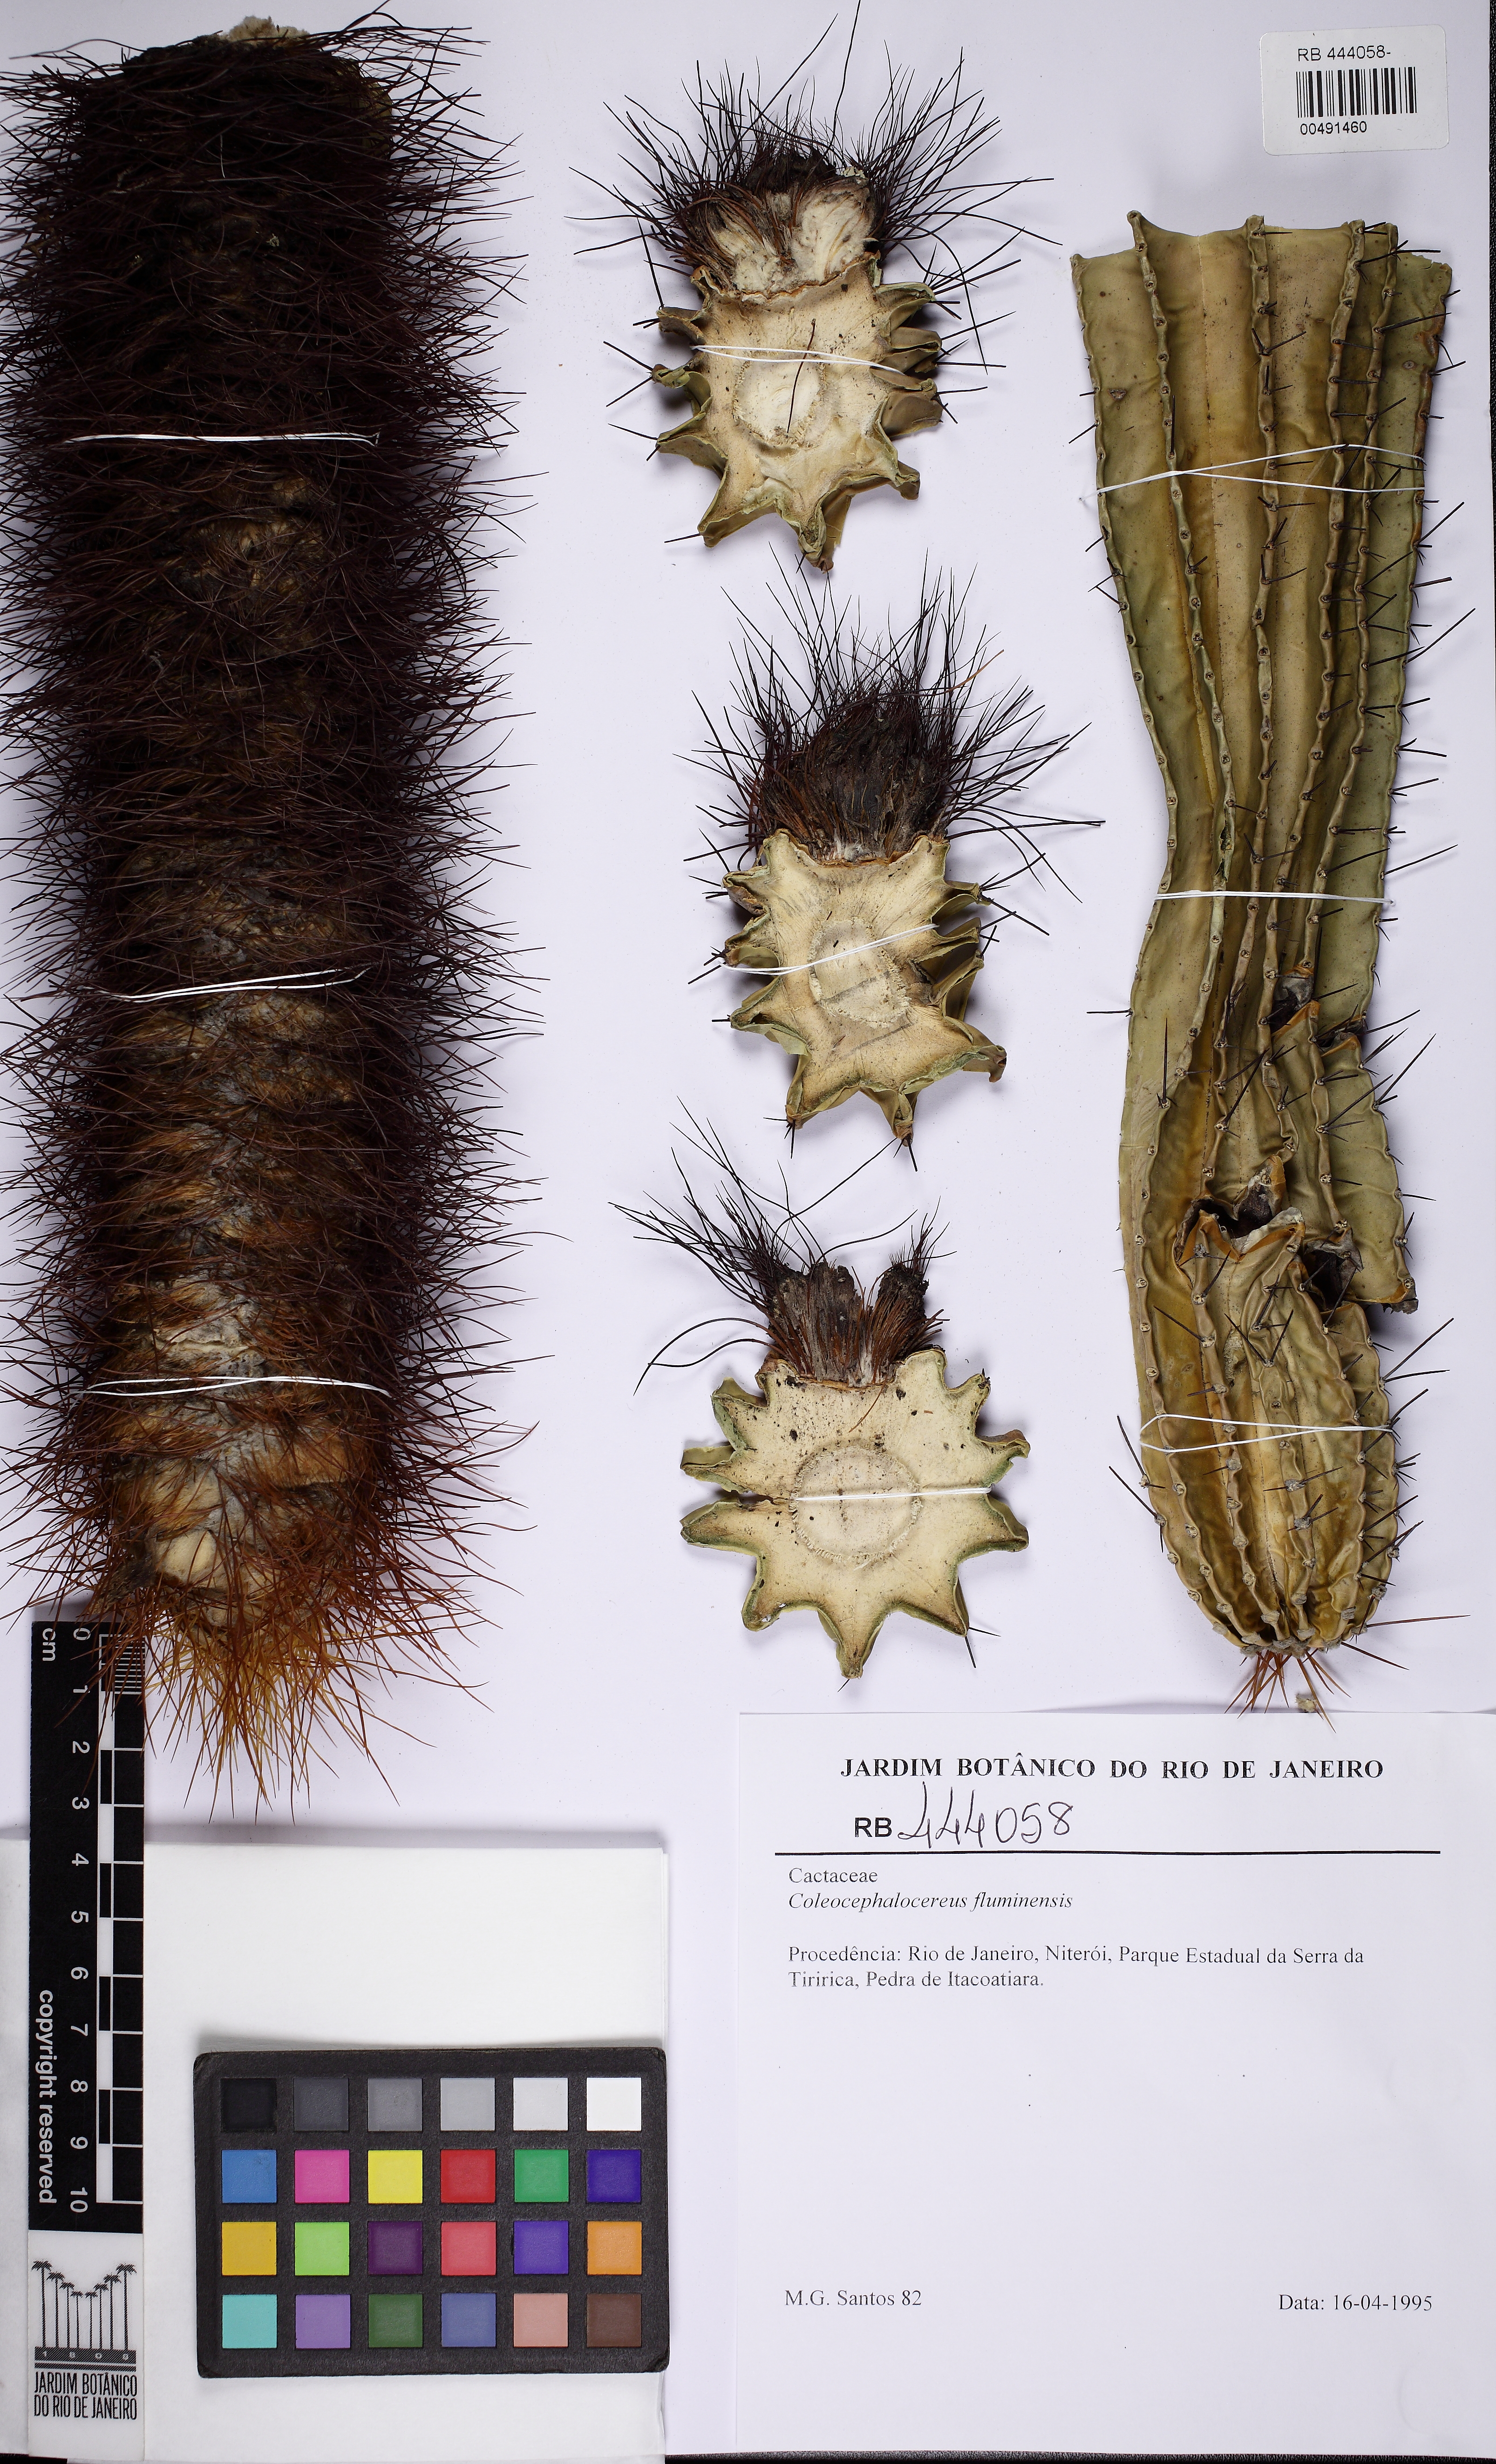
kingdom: Plantae
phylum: Tracheophyta
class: Magnoliopsida
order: Caryophyllales
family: Cactaceae
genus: Coleocephalocereus
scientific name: Coleocephalocereus fluminensis
